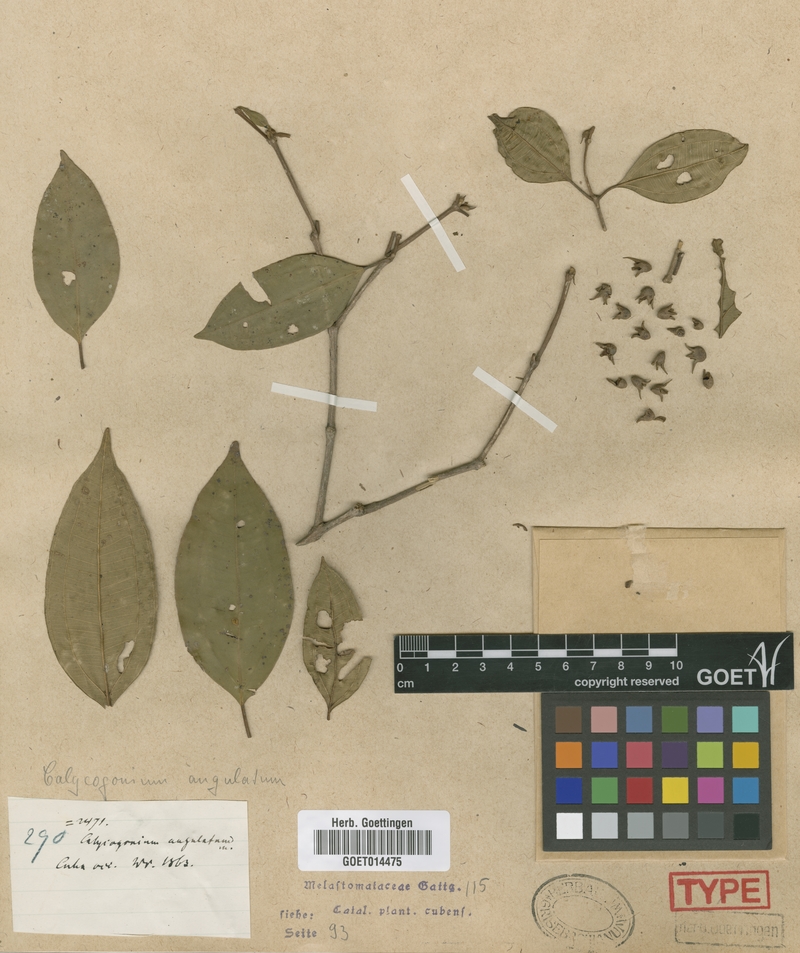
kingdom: Plantae
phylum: Tracheophyta
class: Magnoliopsida
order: Myrtales
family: Melastomataceae
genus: Miconia
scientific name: Miconia angulata
